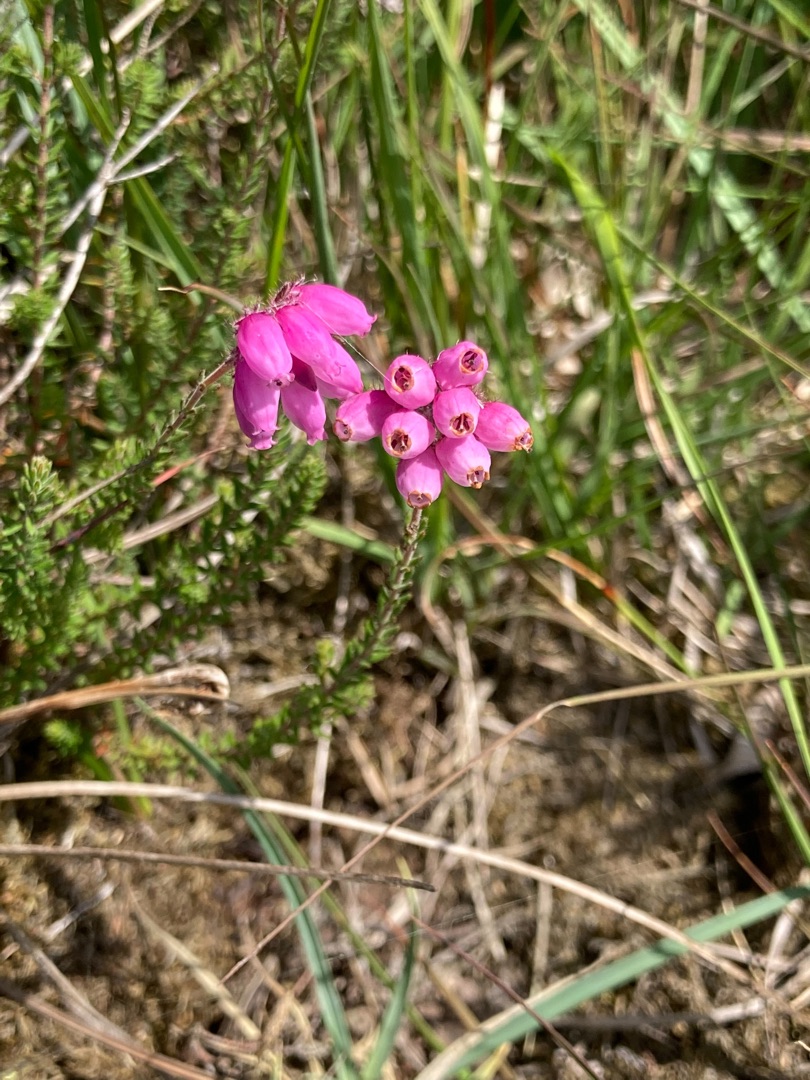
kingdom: Plantae
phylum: Tracheophyta
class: Magnoliopsida
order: Ericales
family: Ericaceae
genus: Erica
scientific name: Erica tetralix
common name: Klokkelyng
